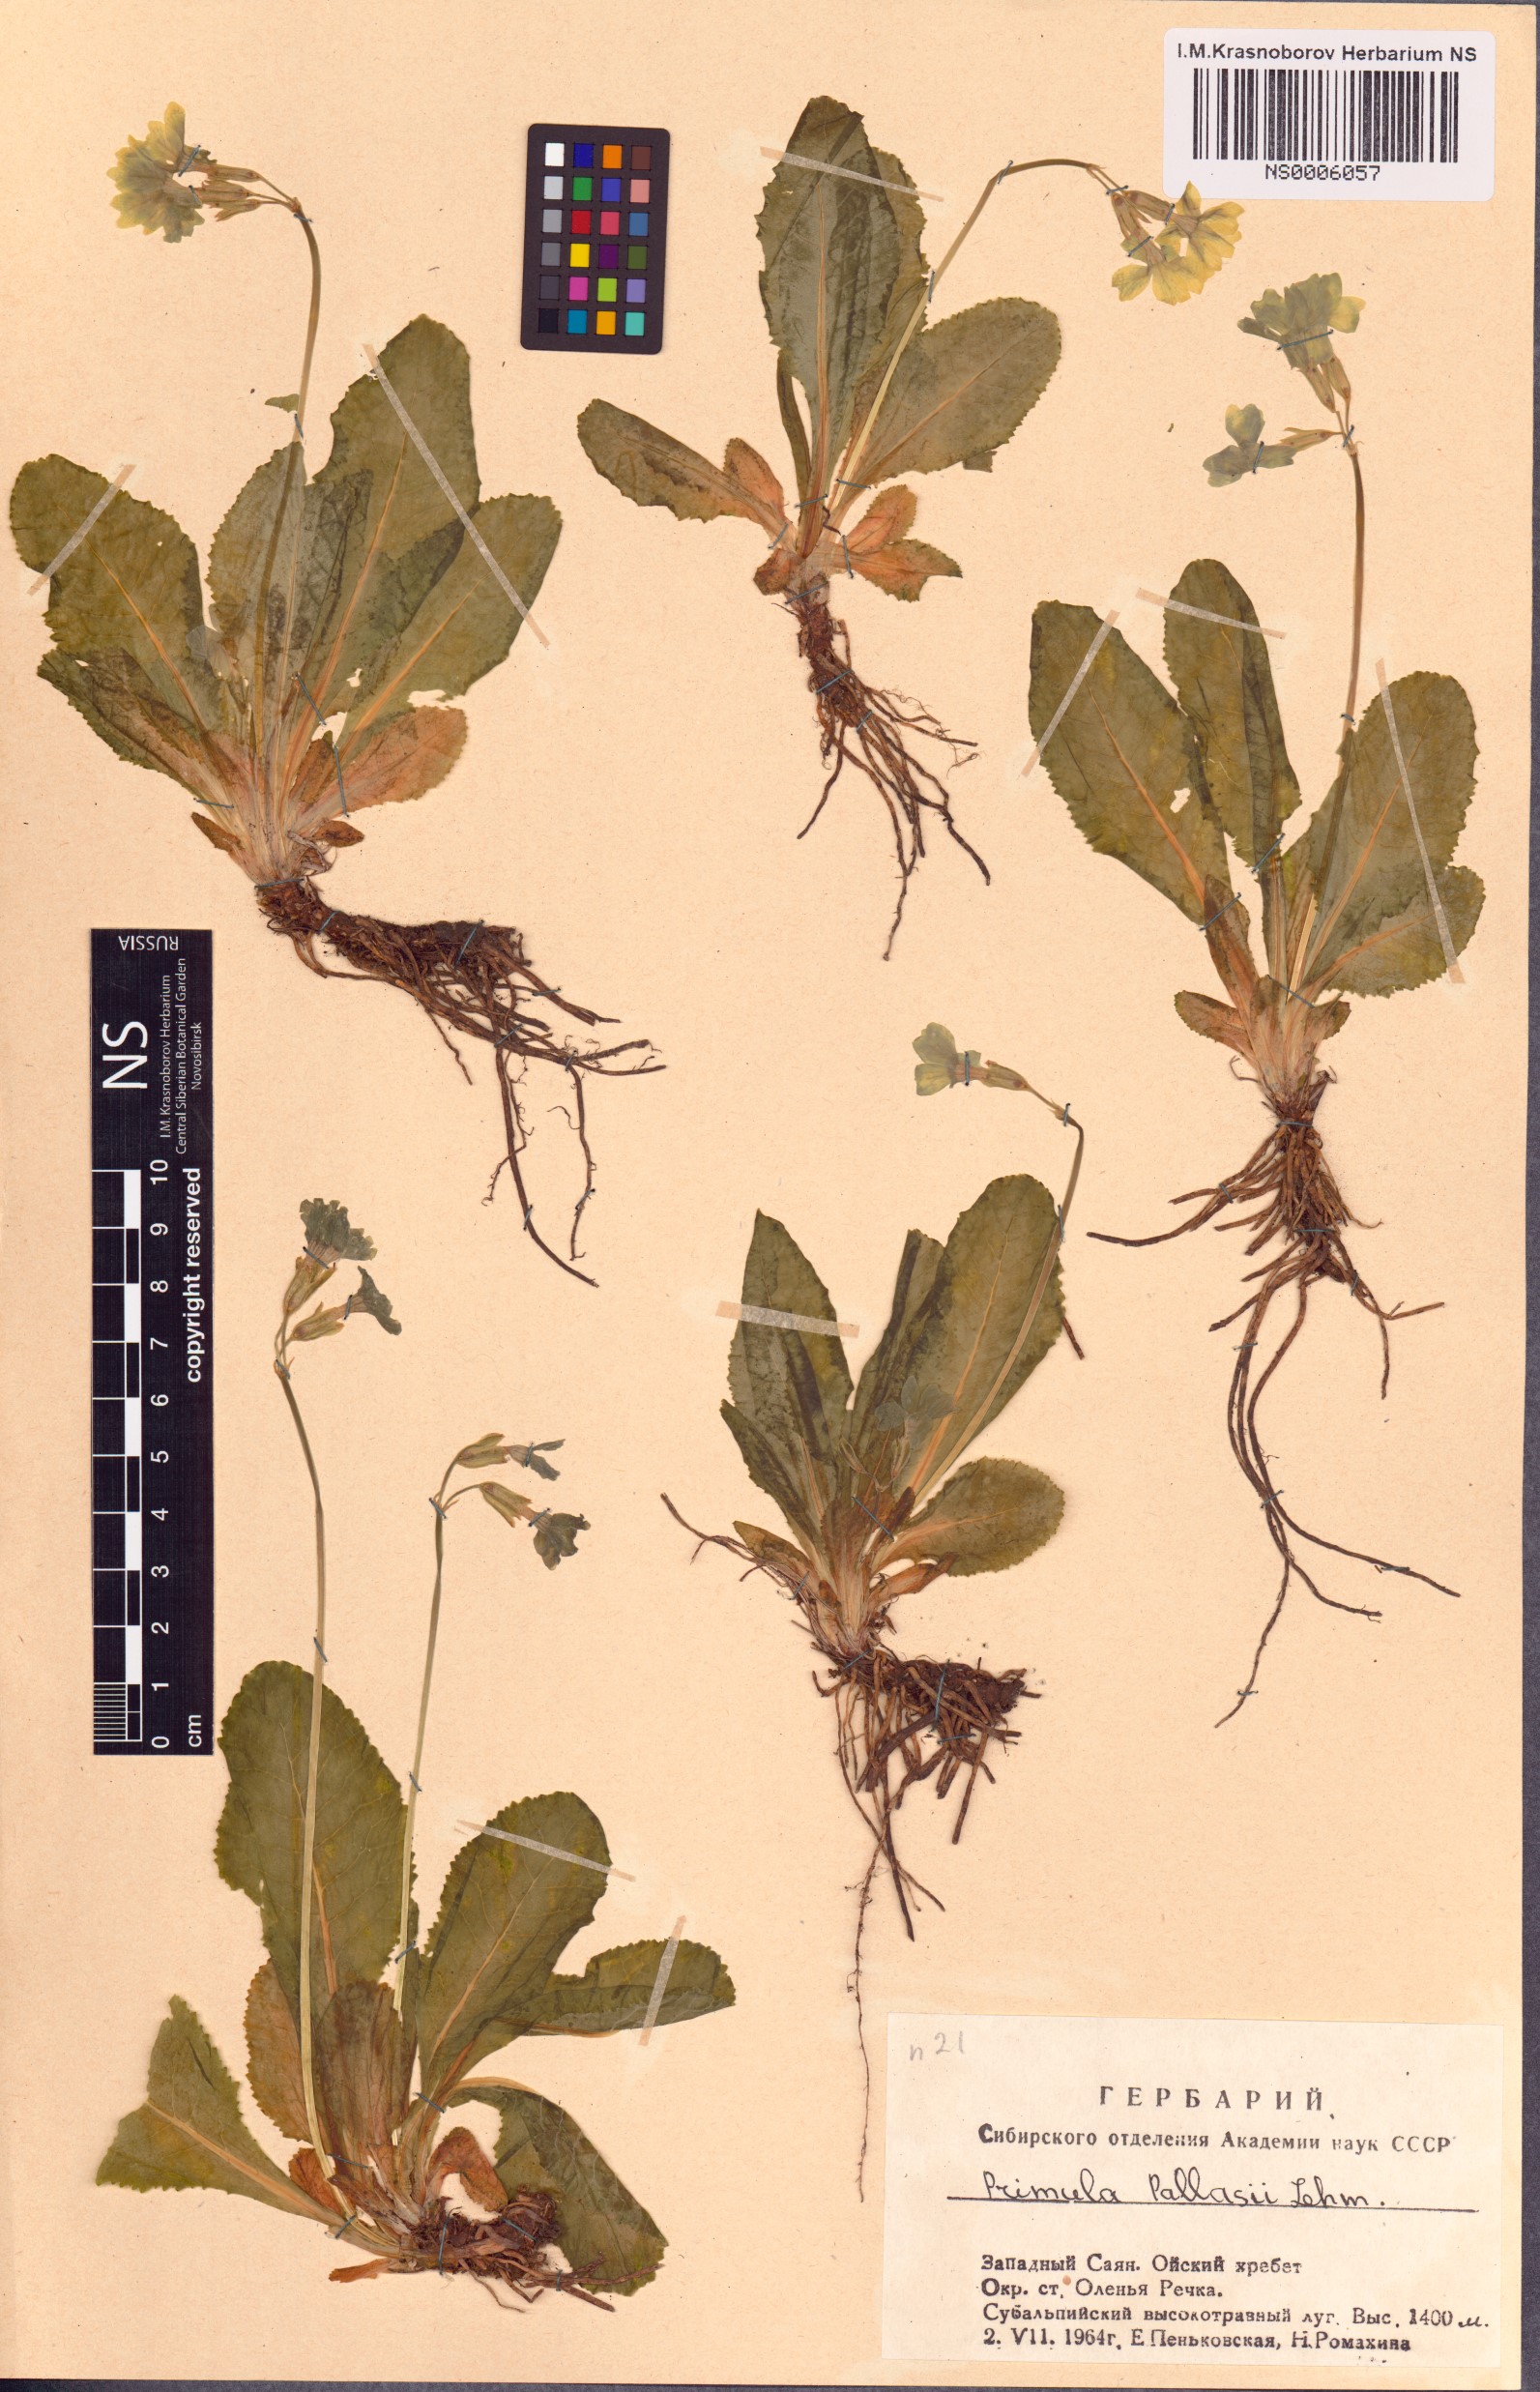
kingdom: Plantae
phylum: Tracheophyta
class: Magnoliopsida
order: Ericales
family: Primulaceae
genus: Primula
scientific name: Primula elatior
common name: Oxlip
